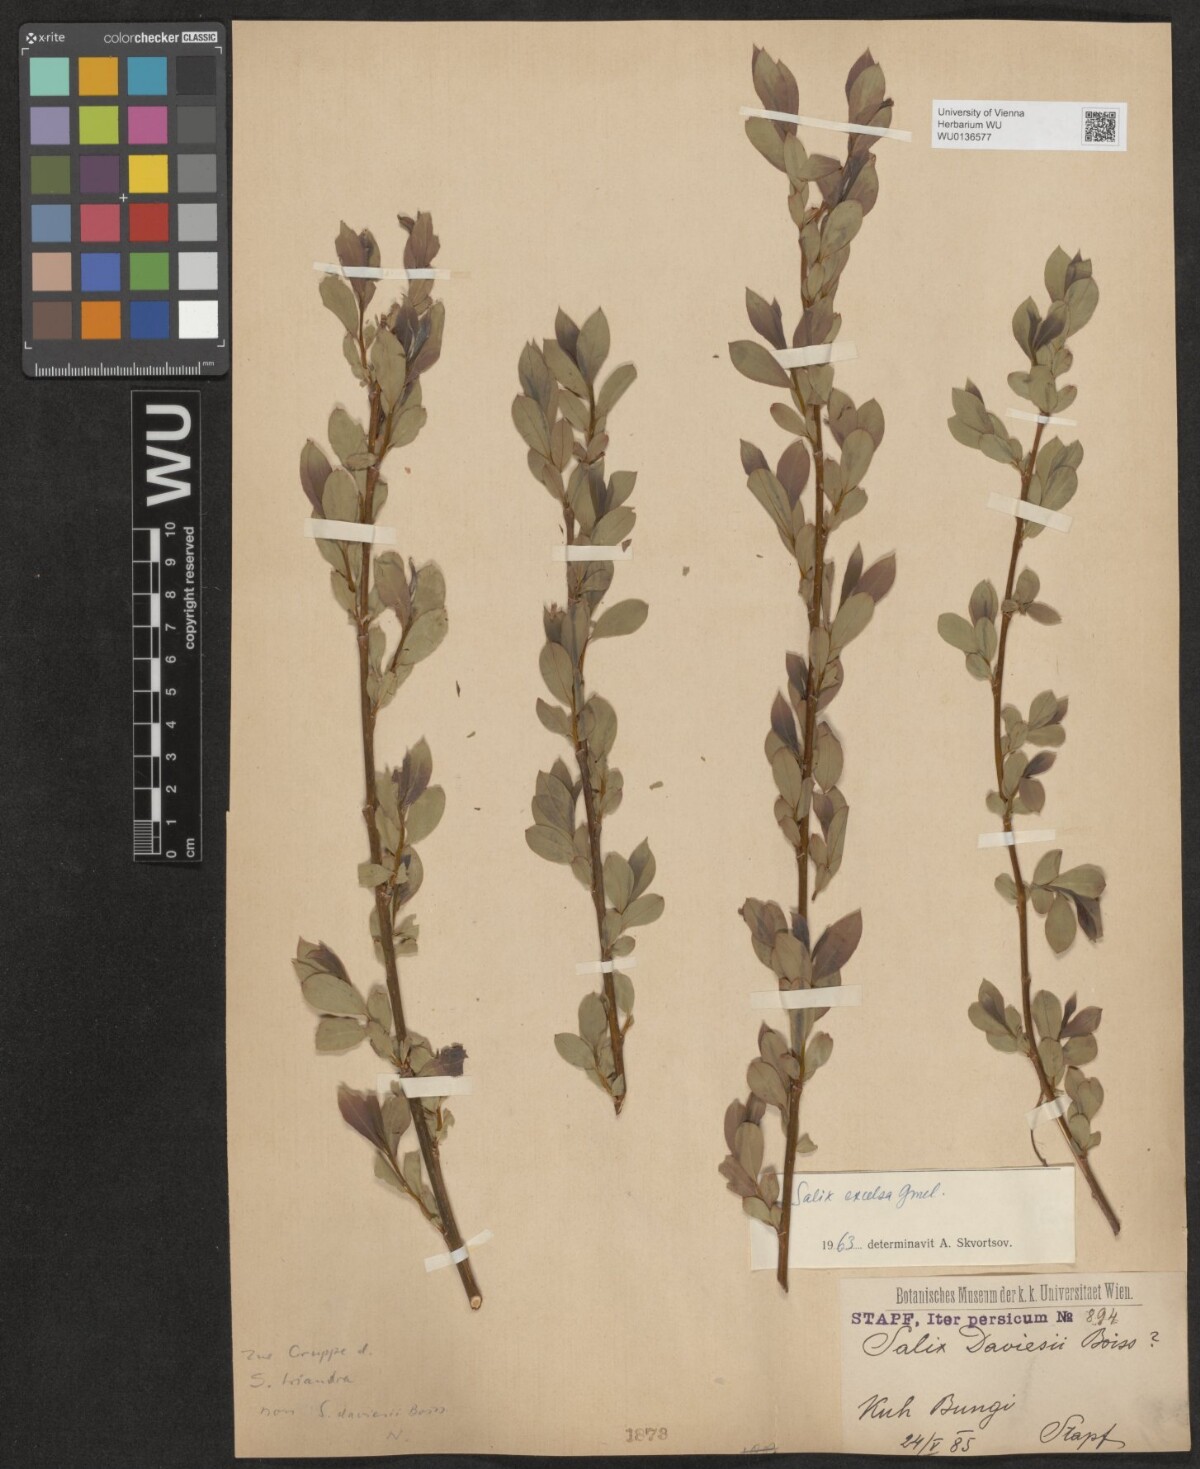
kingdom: Plantae
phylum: Tracheophyta
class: Magnoliopsida
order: Malpighiales
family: Salicaceae
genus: Salix
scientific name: Salix excelsa
